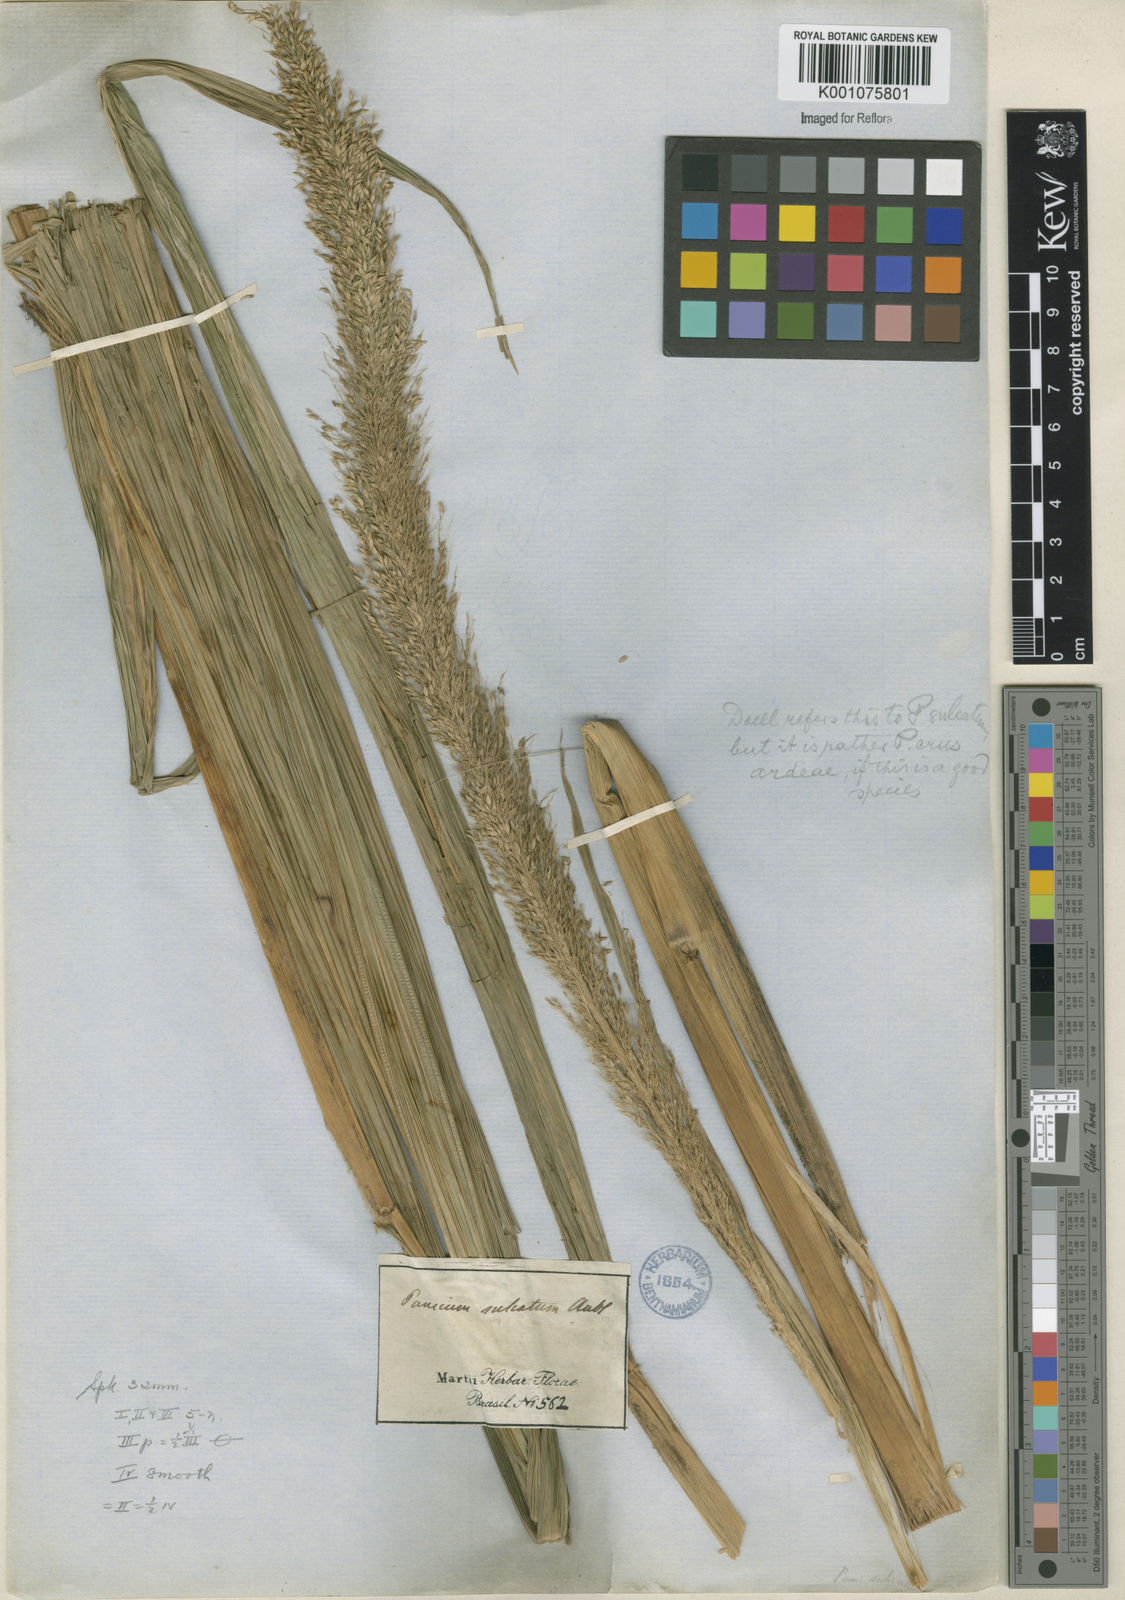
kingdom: Plantae
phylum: Tracheophyta
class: Liliopsida
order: Poales
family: Poaceae
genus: Setaria
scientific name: Setaria megaphylla
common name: Bigleaf bristlegrass
